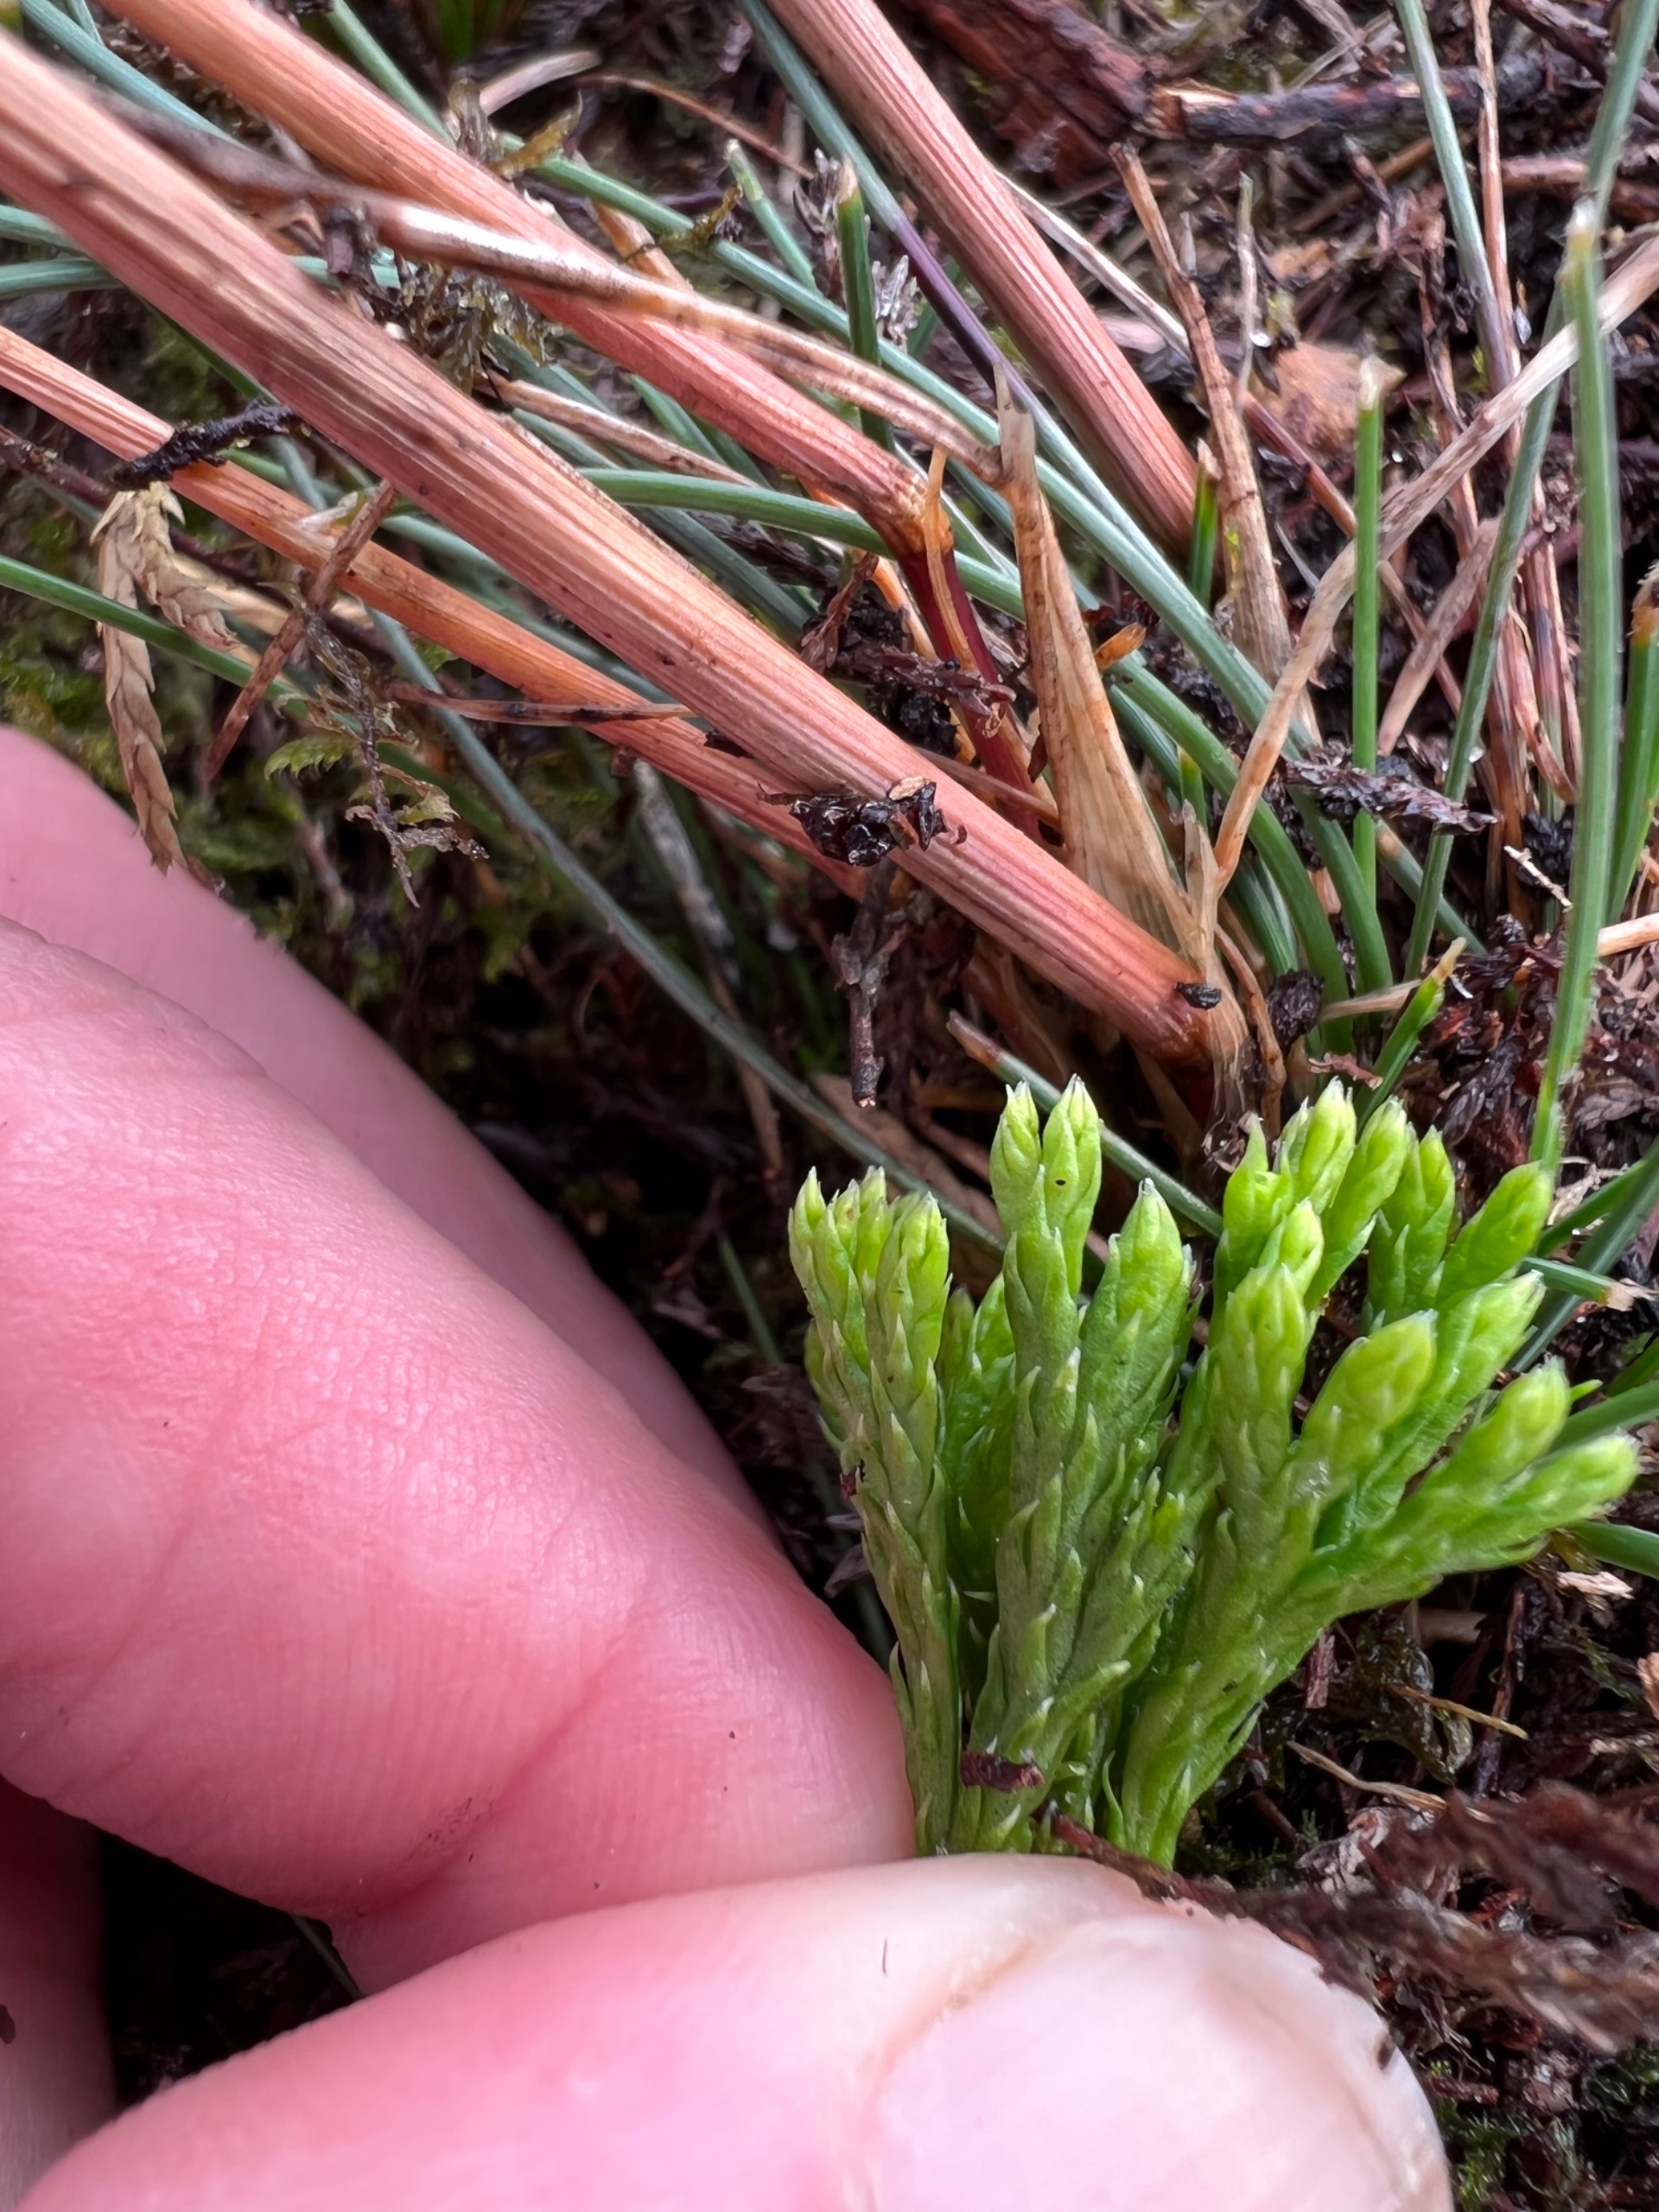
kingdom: Plantae
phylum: Tracheophyta
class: Lycopodiopsida
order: Lycopodiales
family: Lycopodiaceae
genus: Diphasiastrum
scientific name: Diphasiastrum tristachyum
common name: Cypres-ulvefod
